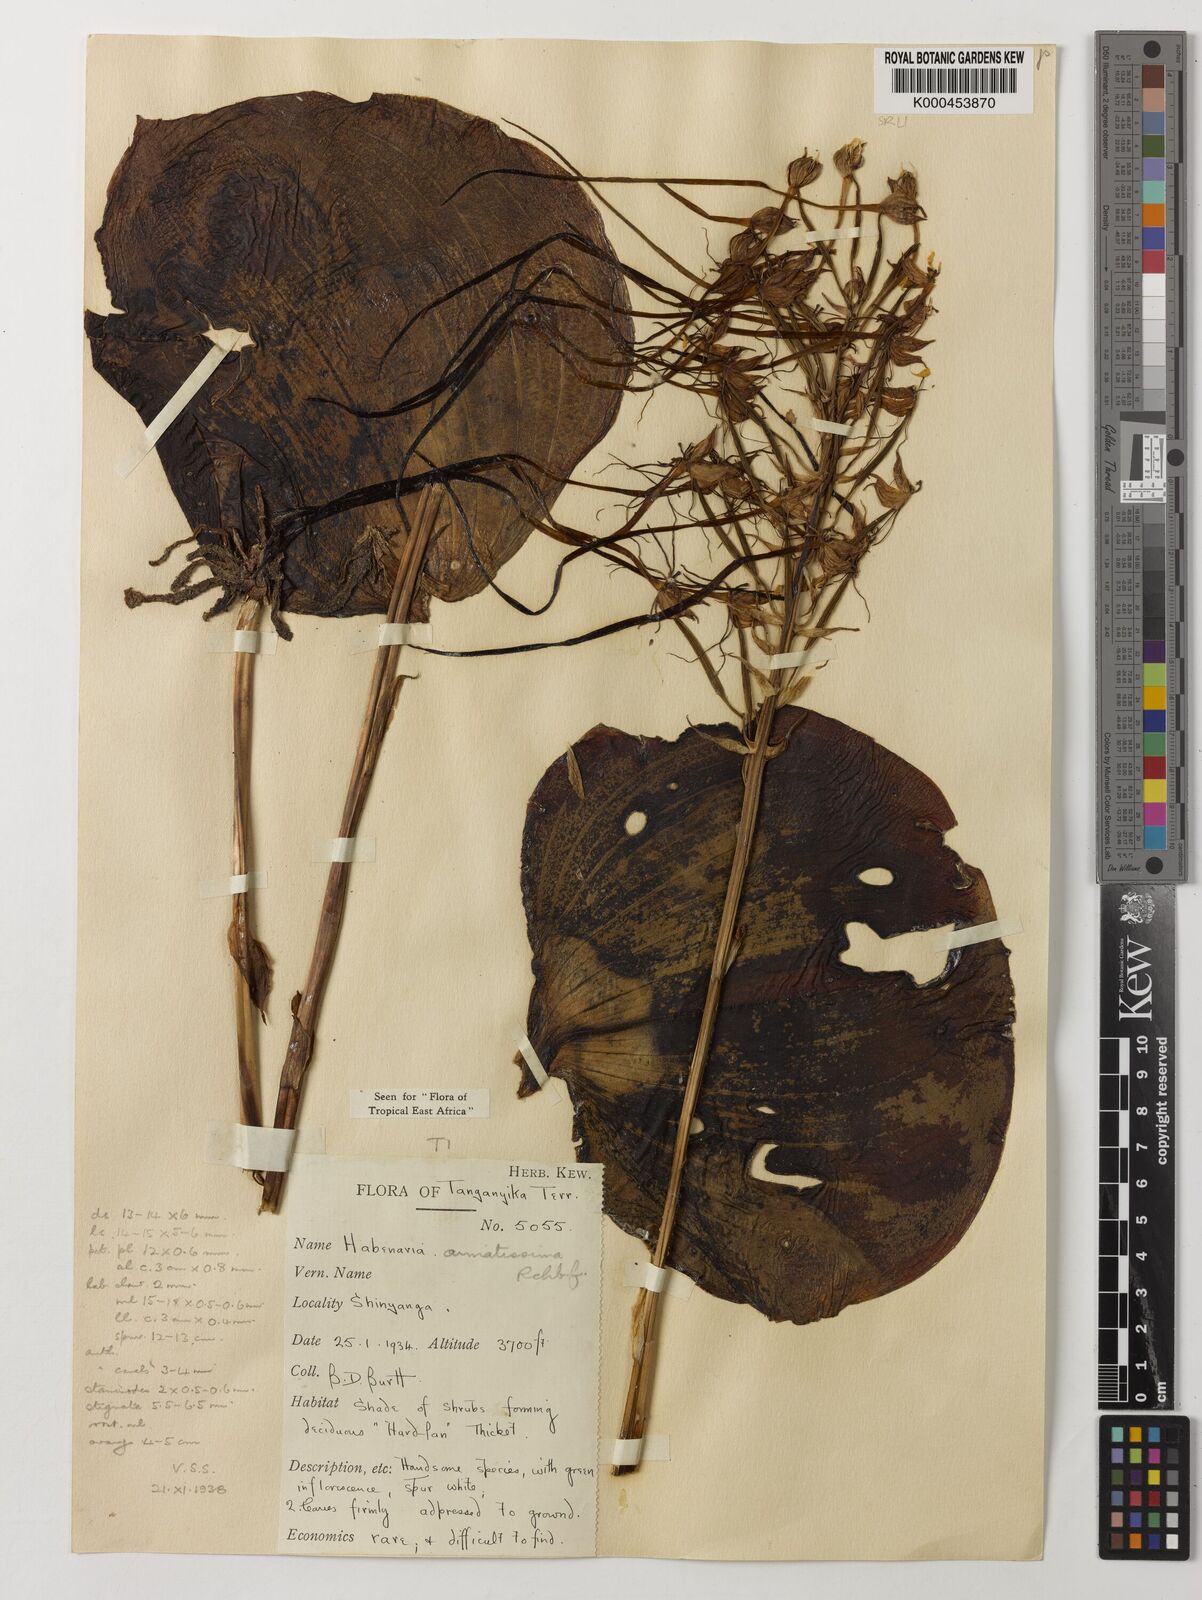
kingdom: Plantae
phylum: Tracheophyta
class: Liliopsida
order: Asparagales
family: Orchidaceae
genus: Habenaria
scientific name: Habenaria armatissima
